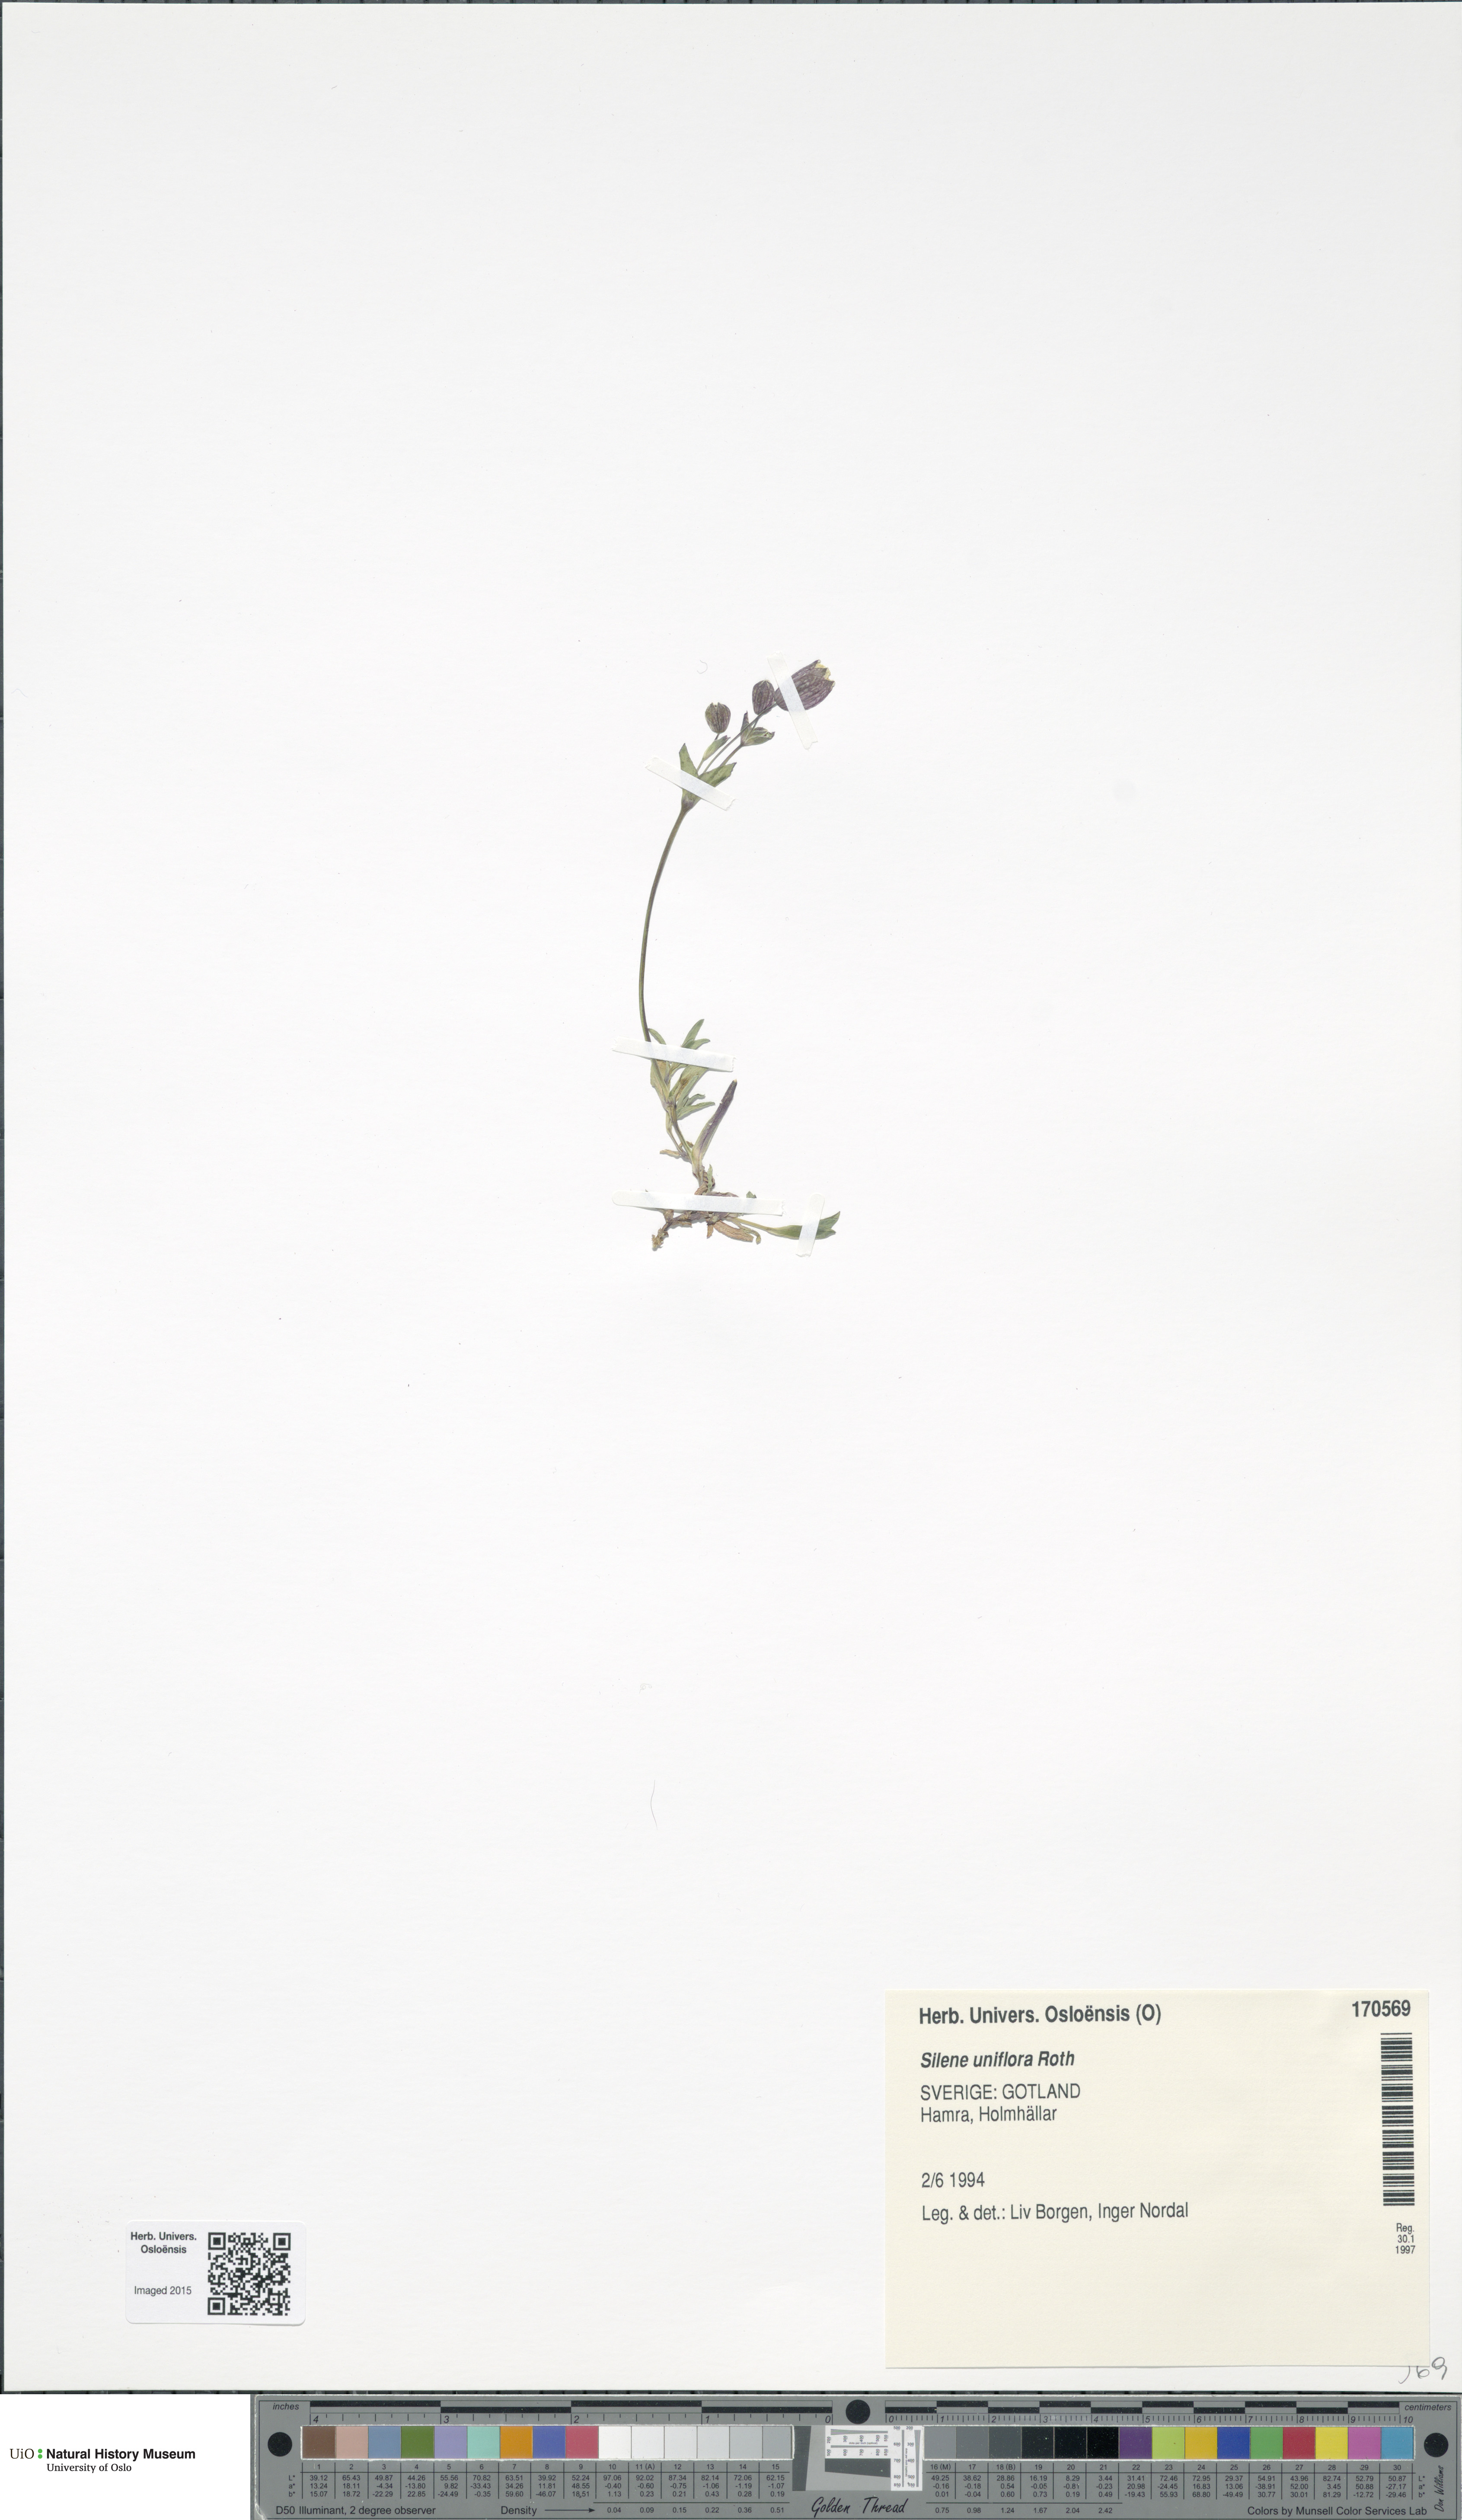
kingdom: Plantae
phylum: Tracheophyta
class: Magnoliopsida
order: Caryophyllales
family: Caryophyllaceae
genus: Silene
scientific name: Silene uniflora
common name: Sea campion
